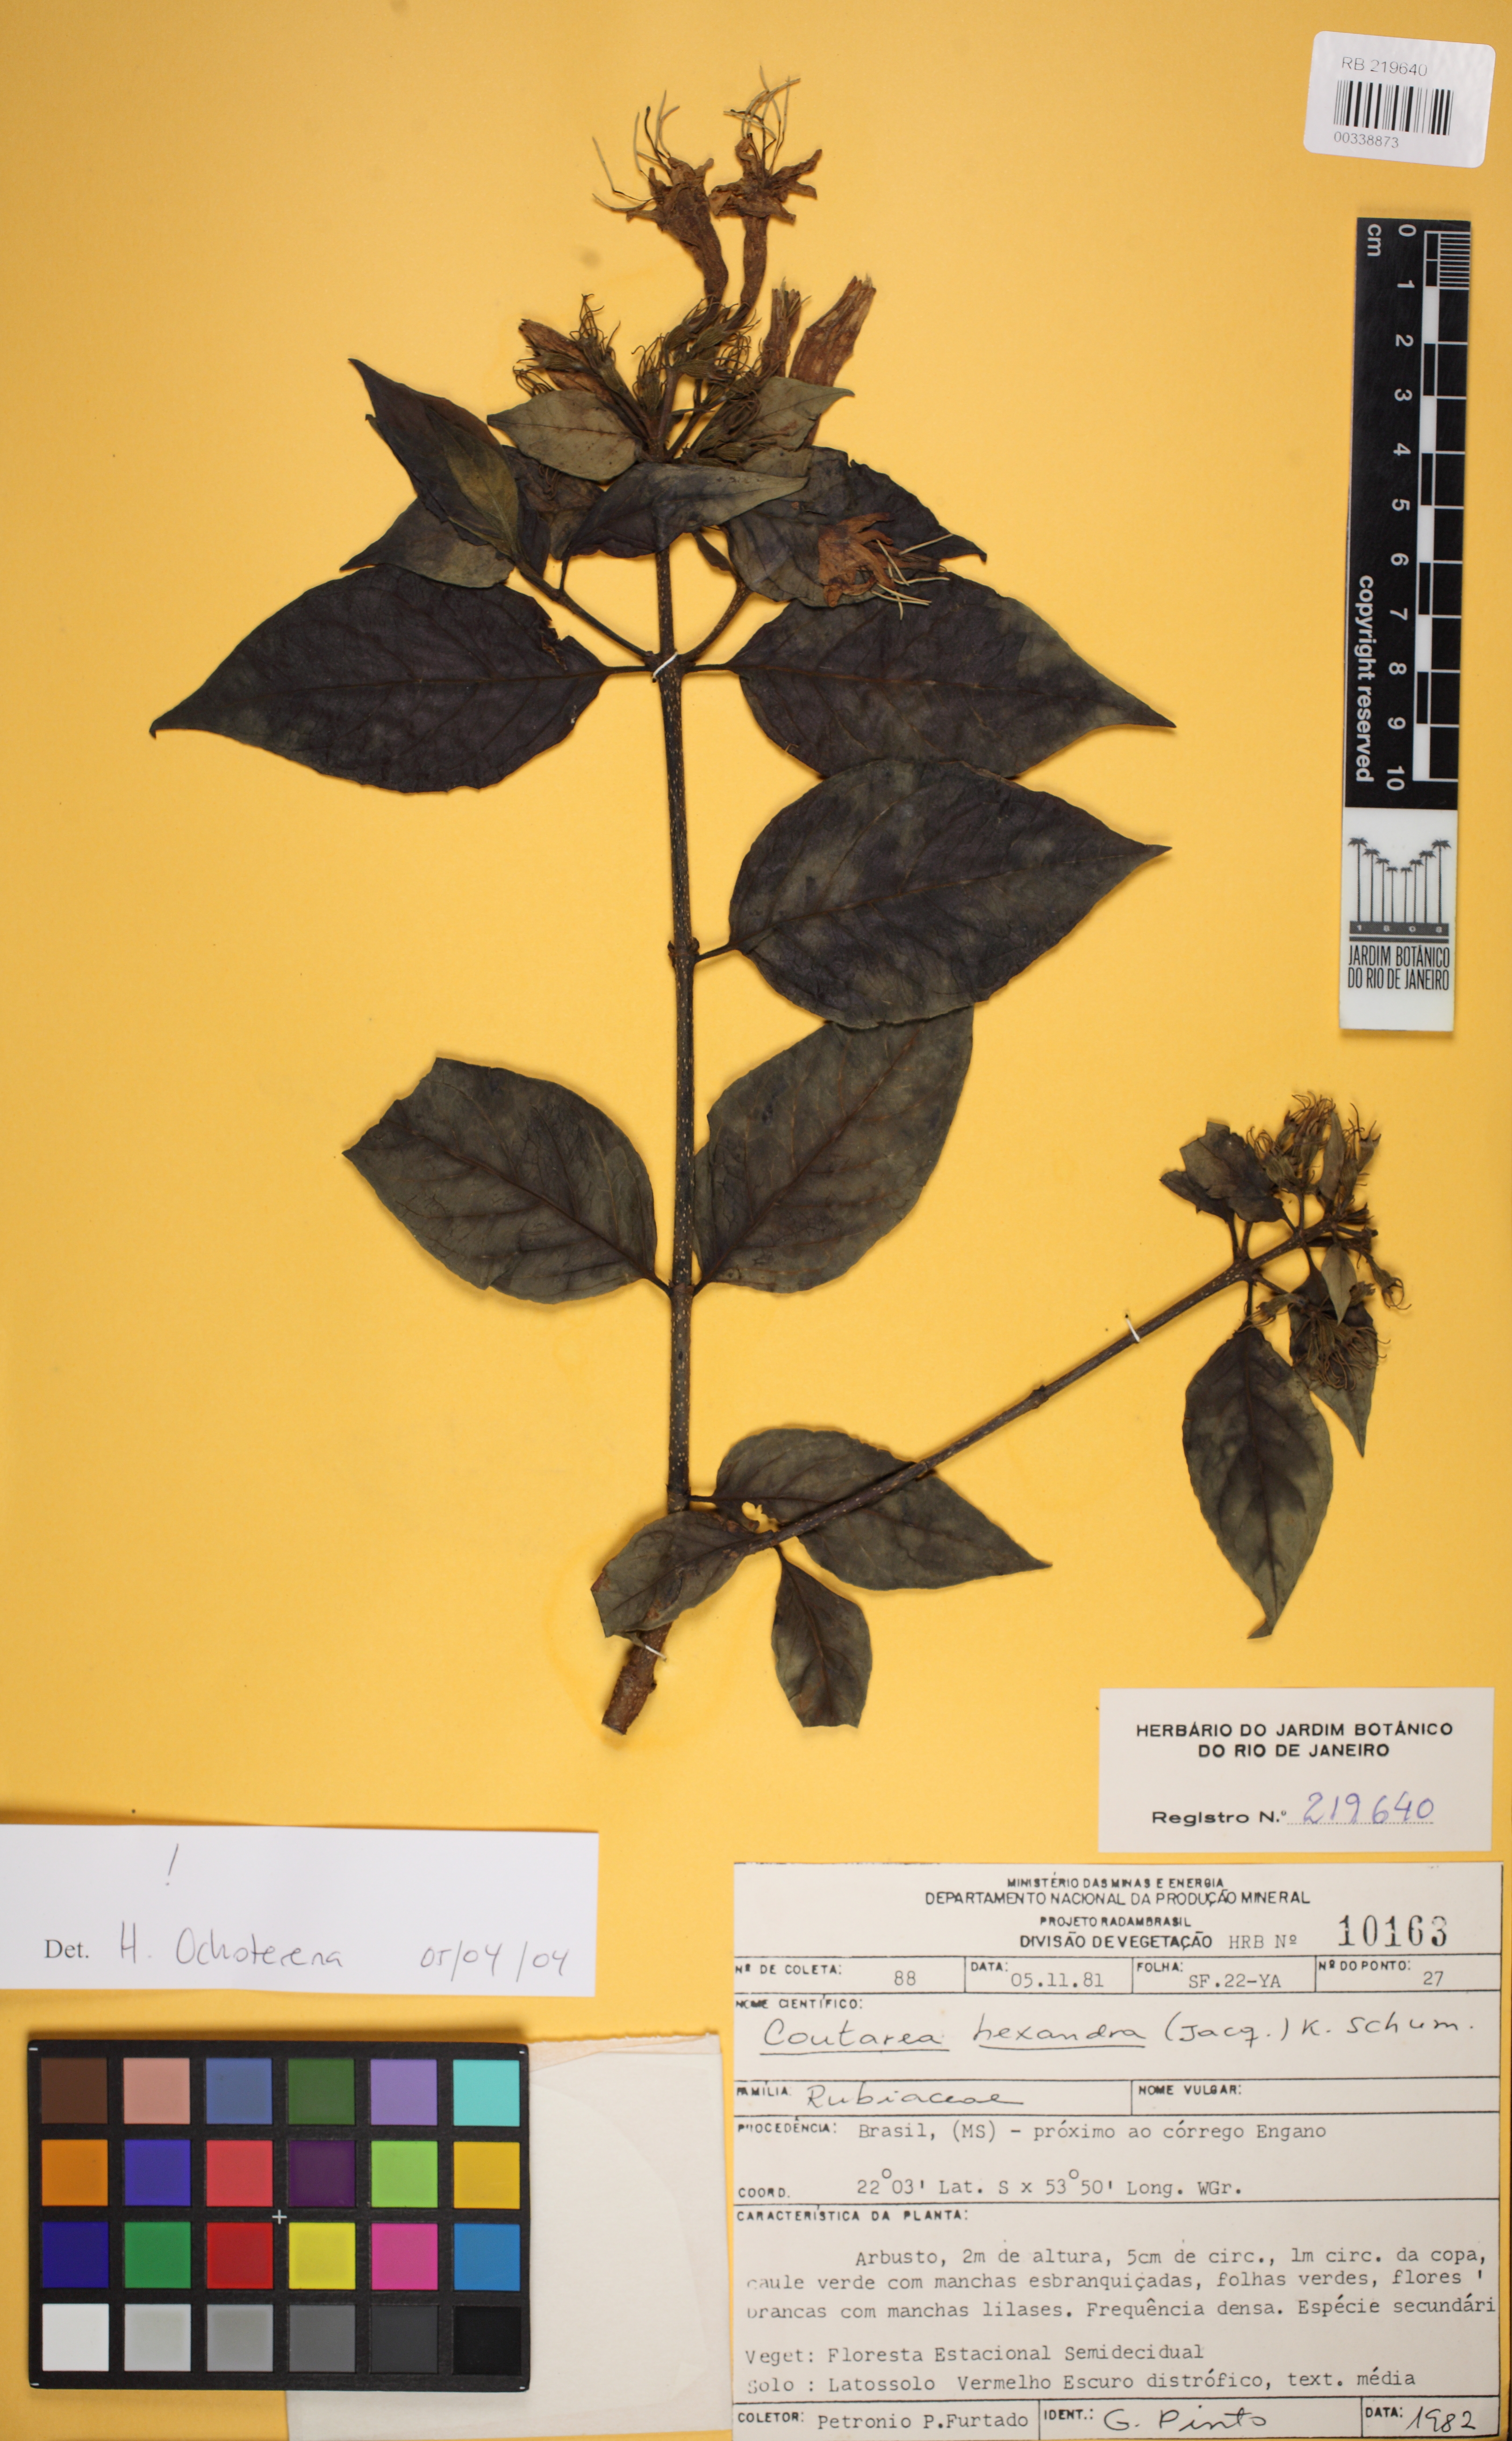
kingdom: Plantae
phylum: Tracheophyta
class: Magnoliopsida
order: Gentianales
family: Rubiaceae
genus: Coutarea
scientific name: Coutarea hexandra
